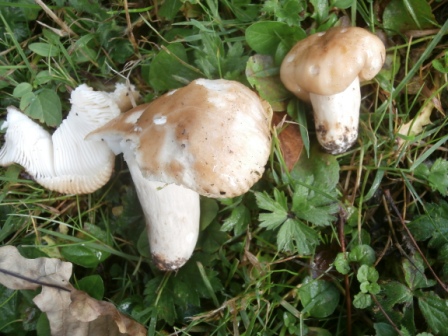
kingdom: Fungi
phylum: Basidiomycota
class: Agaricomycetes
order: Russulales
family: Russulaceae
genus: Russula
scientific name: Russula foetens
